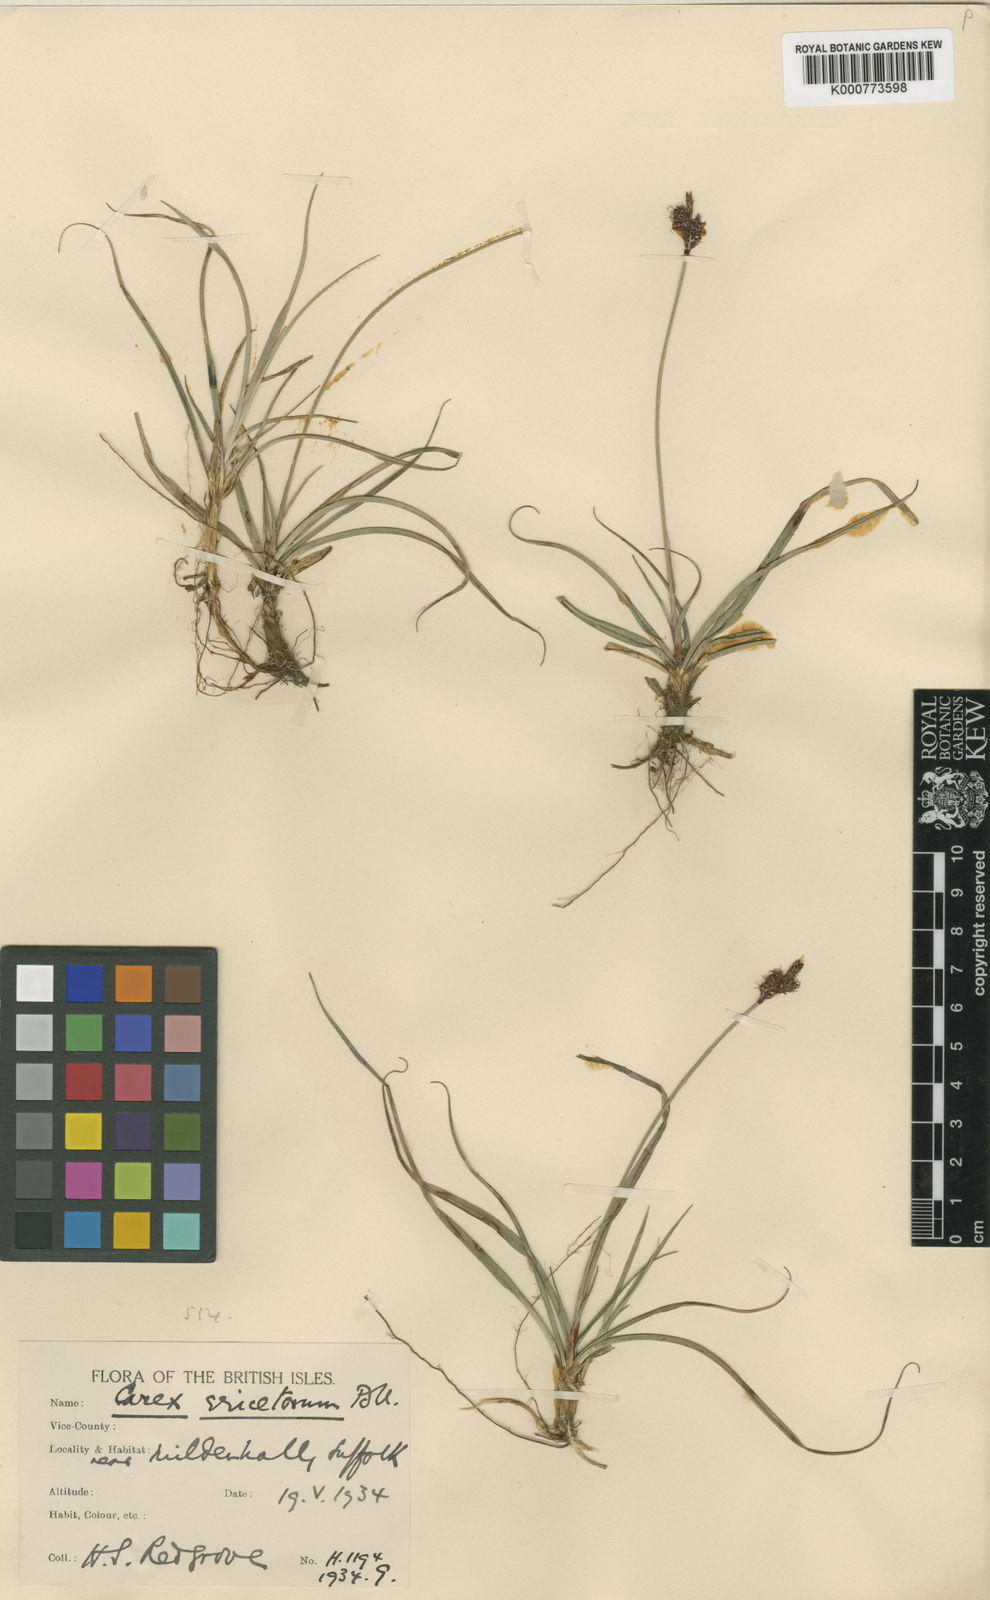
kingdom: Plantae
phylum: Tracheophyta
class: Liliopsida
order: Poales
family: Cyperaceae
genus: Carex
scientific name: Carex ericetorum
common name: Rare spring-sedge
